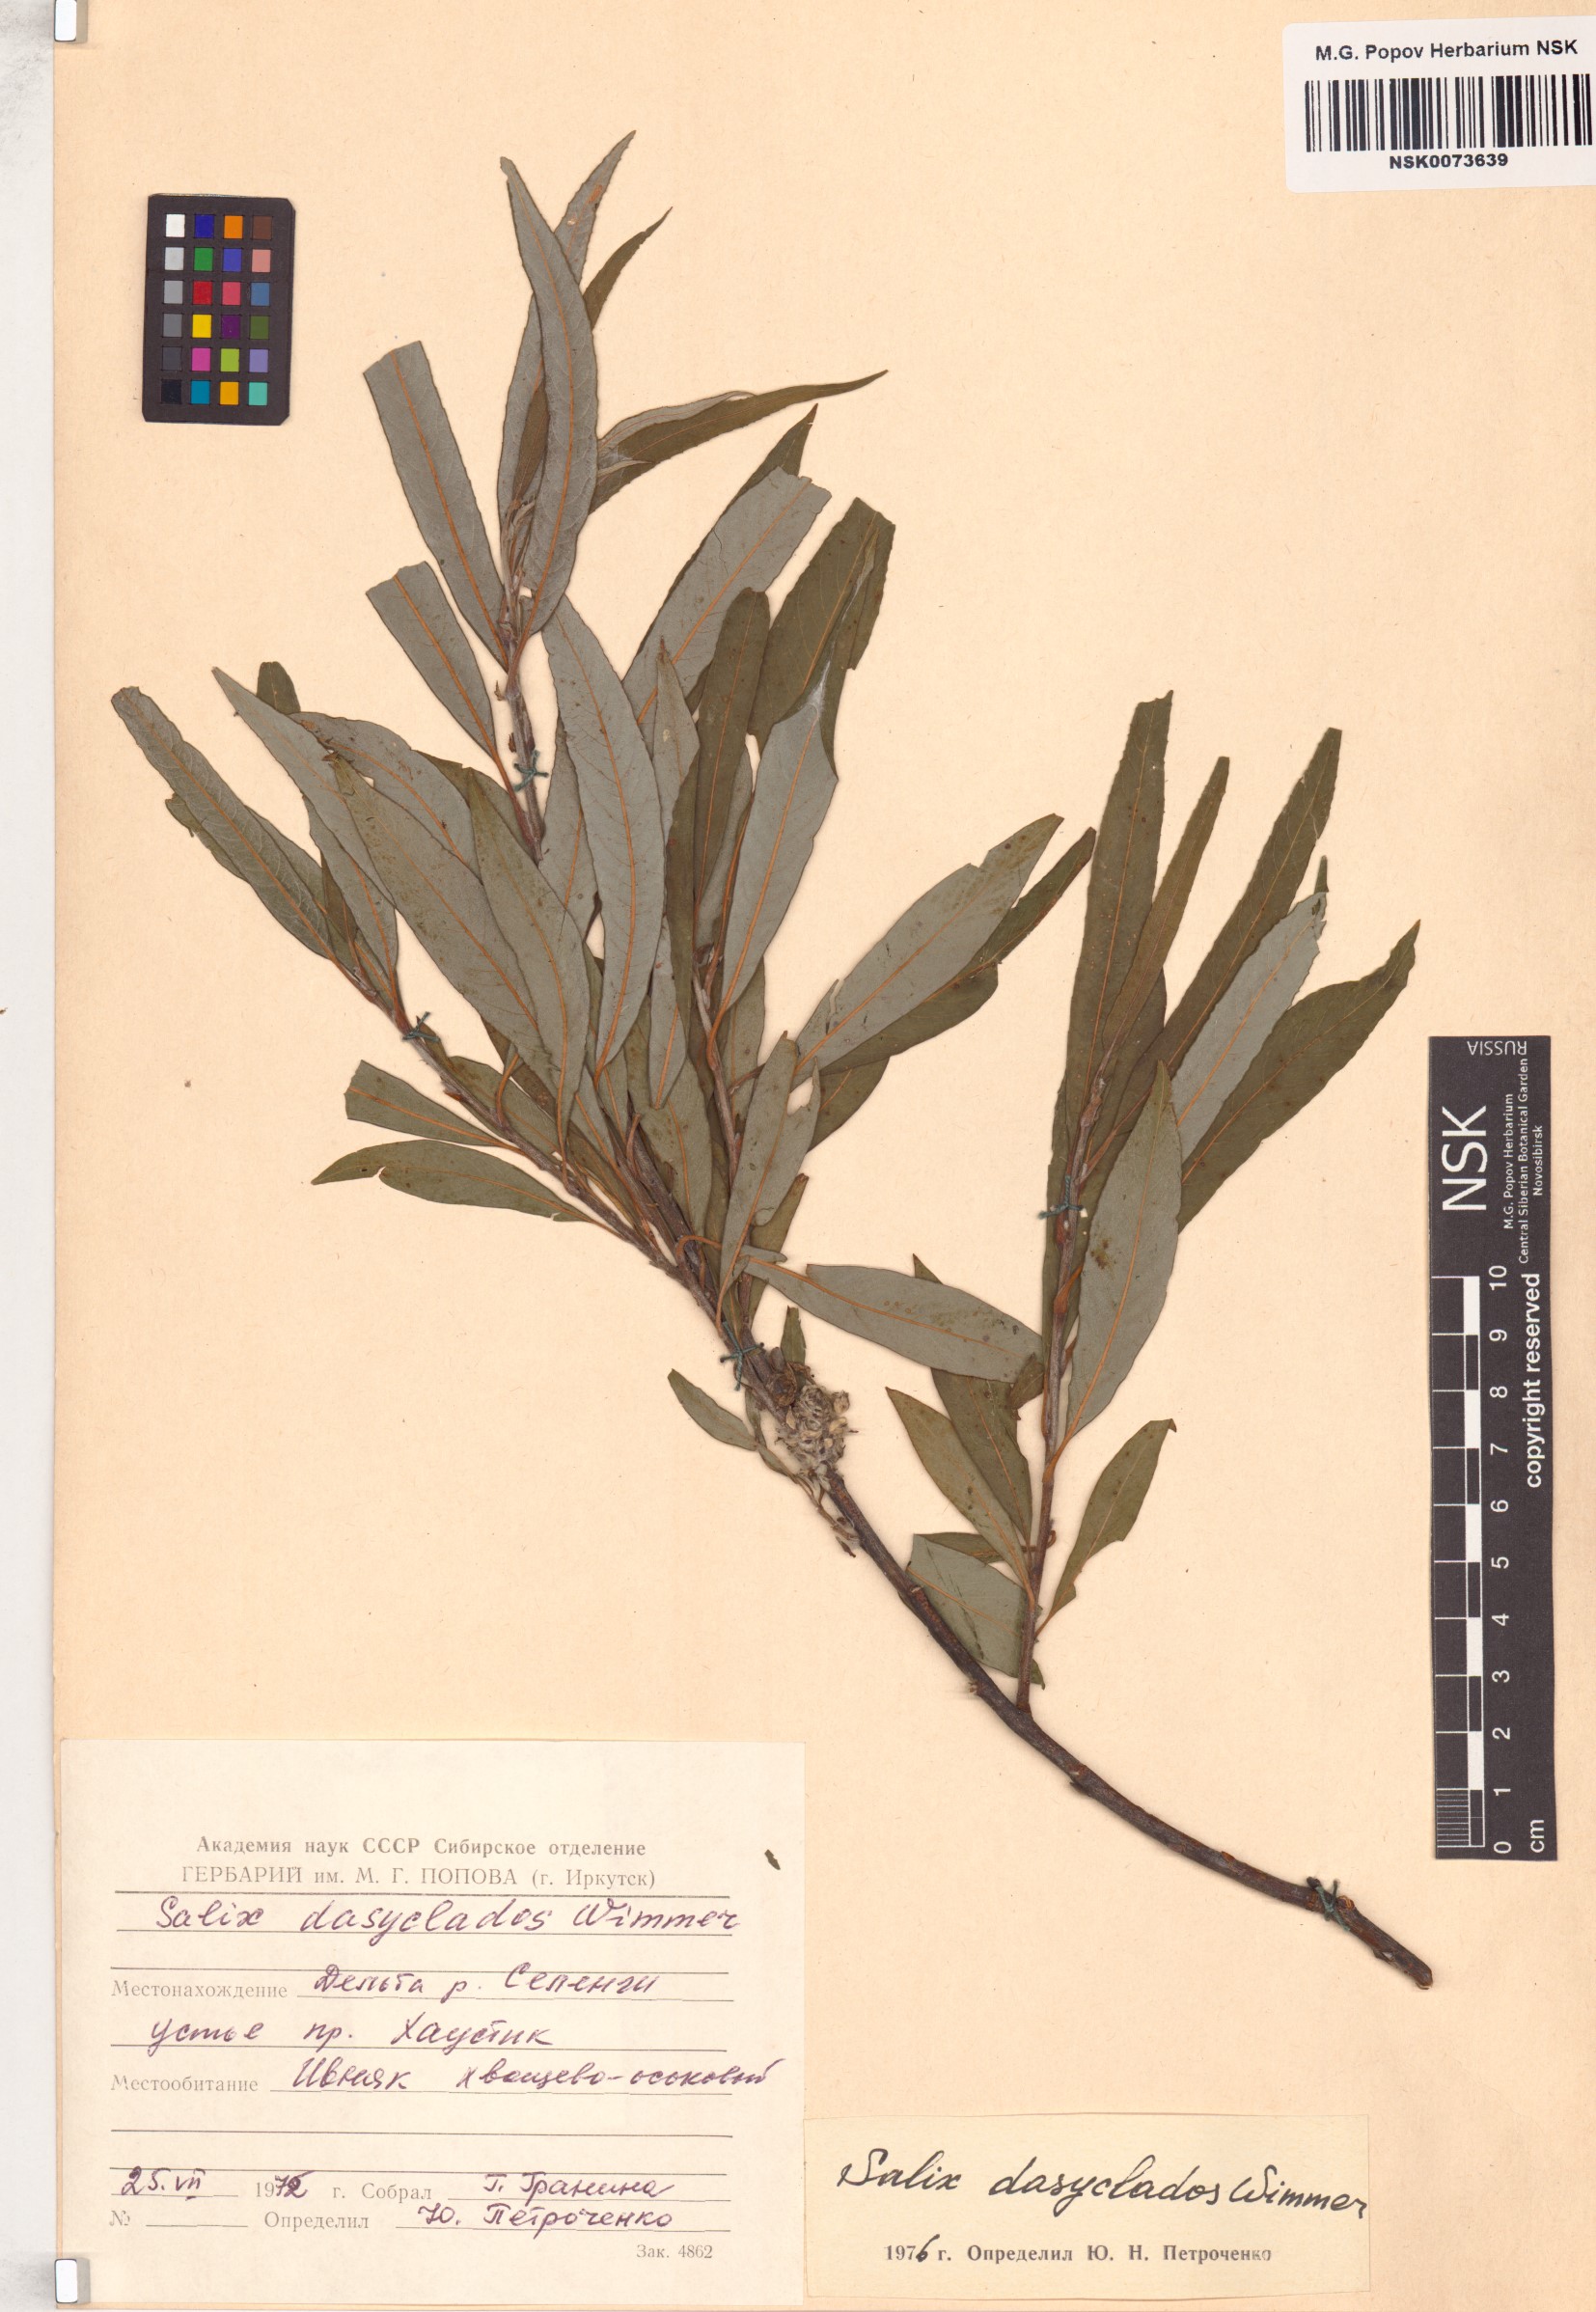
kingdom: Plantae
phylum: Tracheophyta
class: Magnoliopsida
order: Malpighiales
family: Salicaceae
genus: Salix
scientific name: Salix gmelinii
